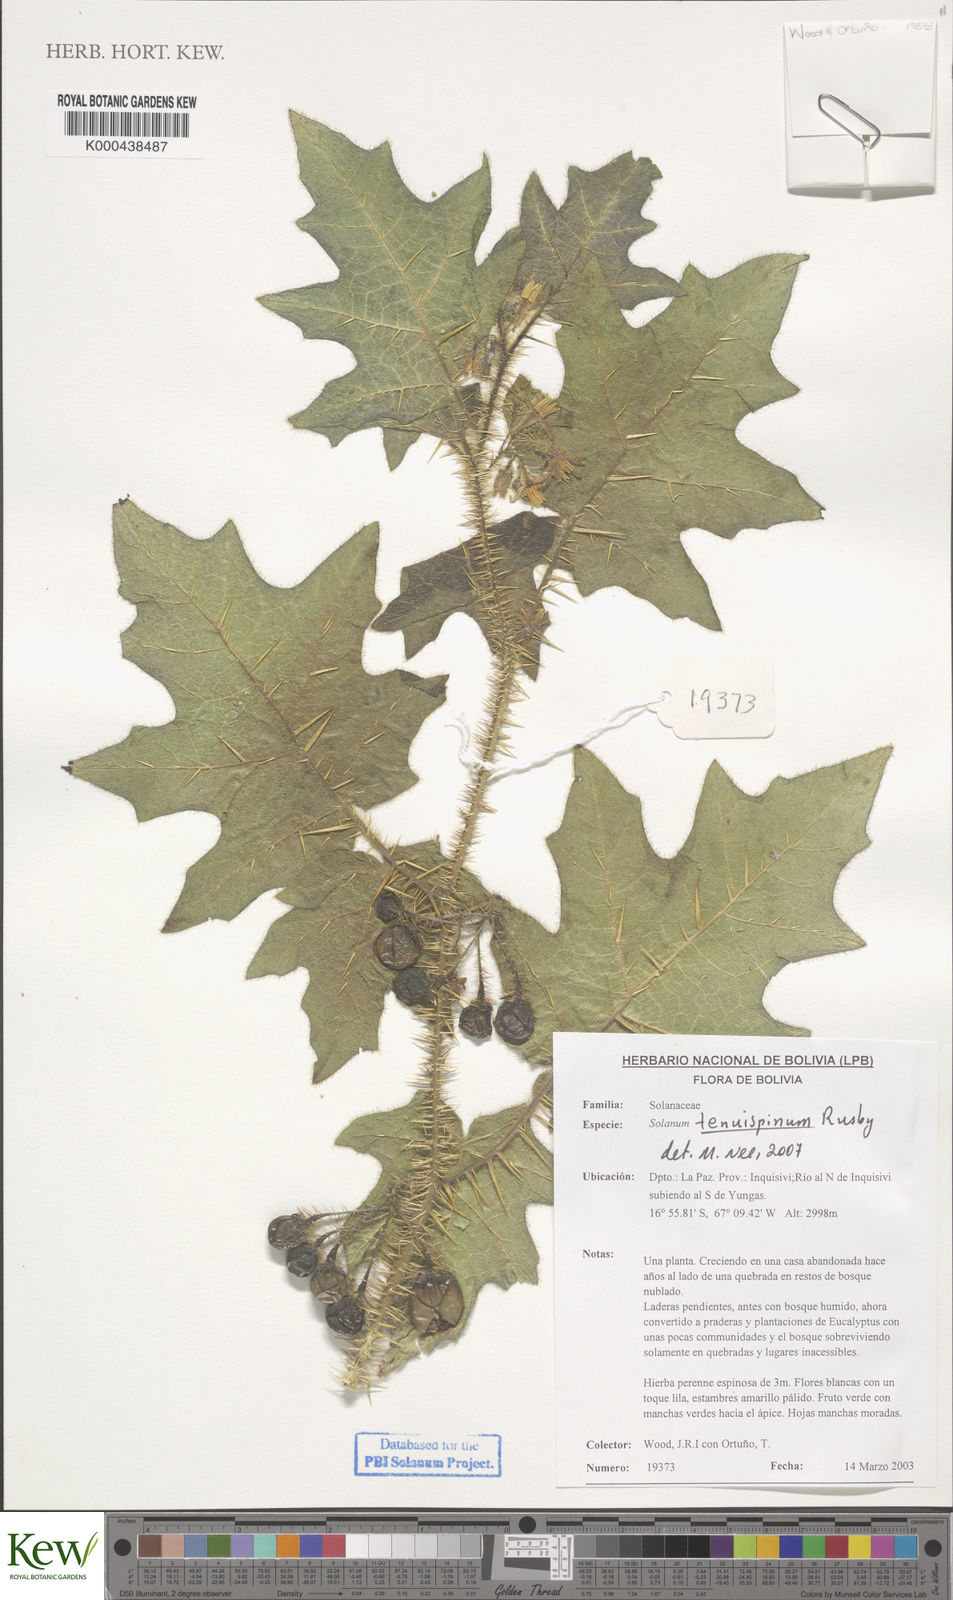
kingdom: Plantae
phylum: Tracheophyta
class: Magnoliopsida
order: Solanales
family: Solanaceae
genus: Solanum
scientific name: Solanum tenuispinum
